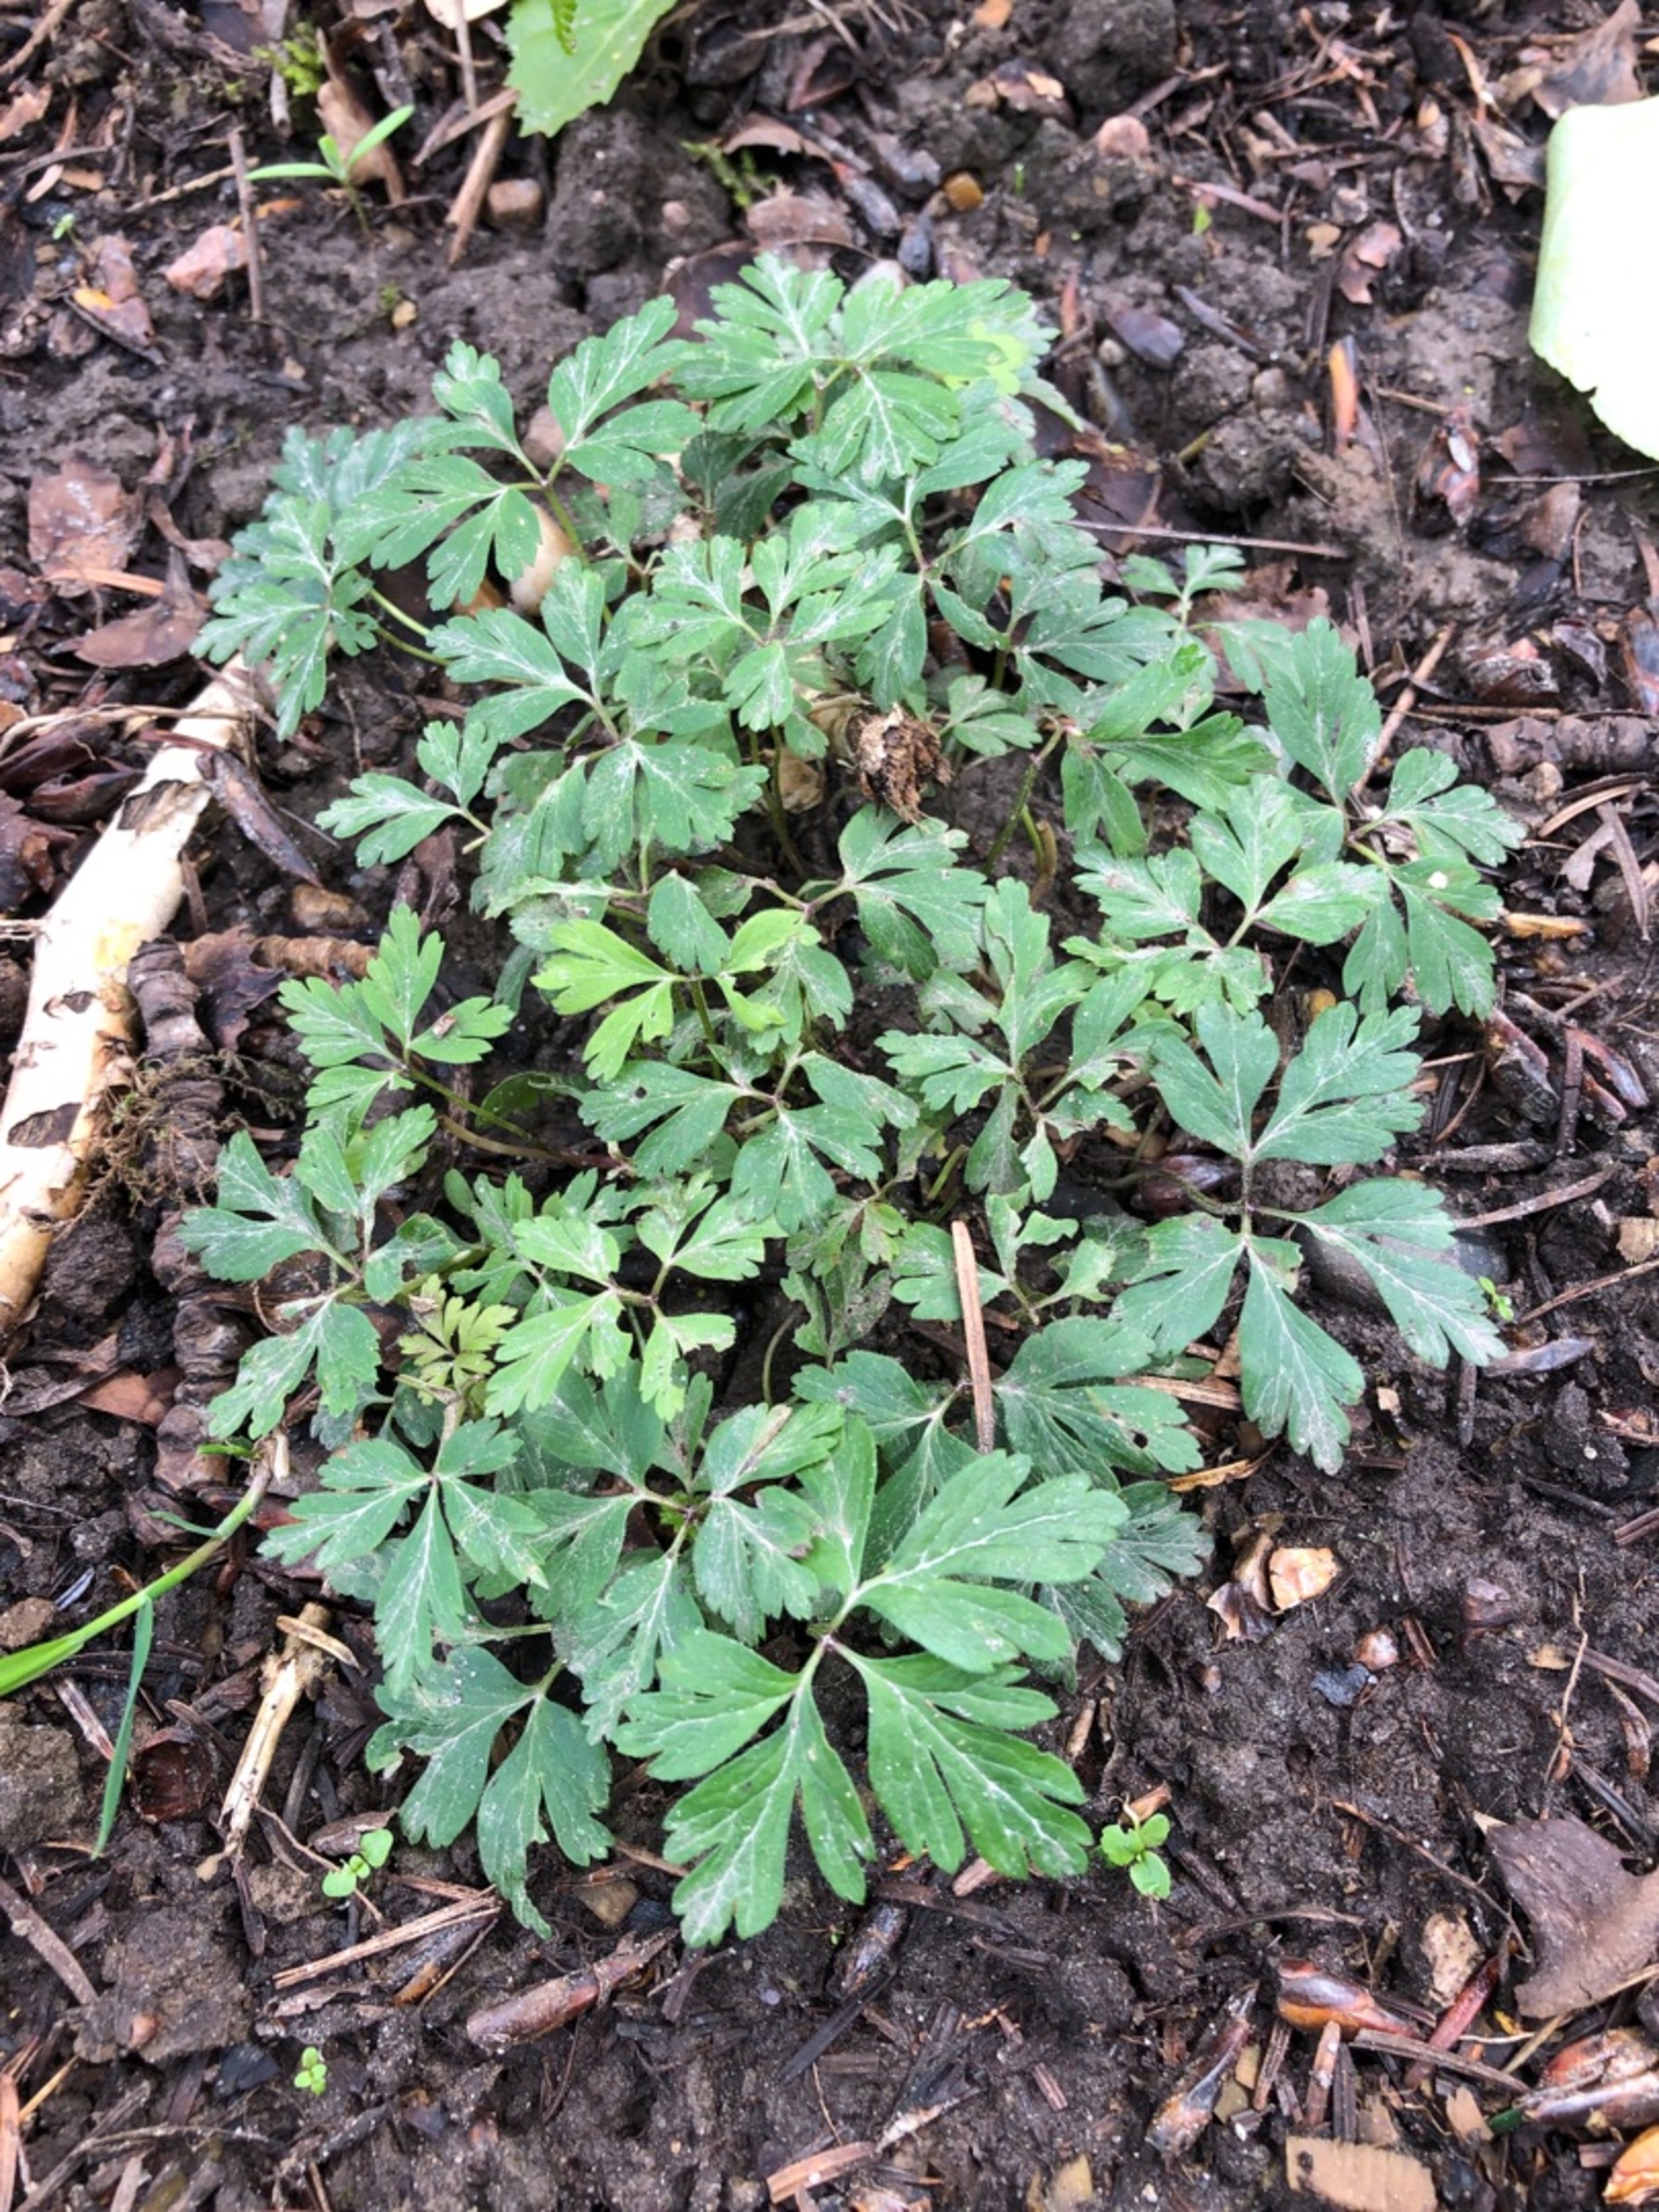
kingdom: Plantae
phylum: Tracheophyta
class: Magnoliopsida
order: Ranunculales
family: Ranunculaceae
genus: Anemone
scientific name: Anemone nemorosa
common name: Hvid anemone
